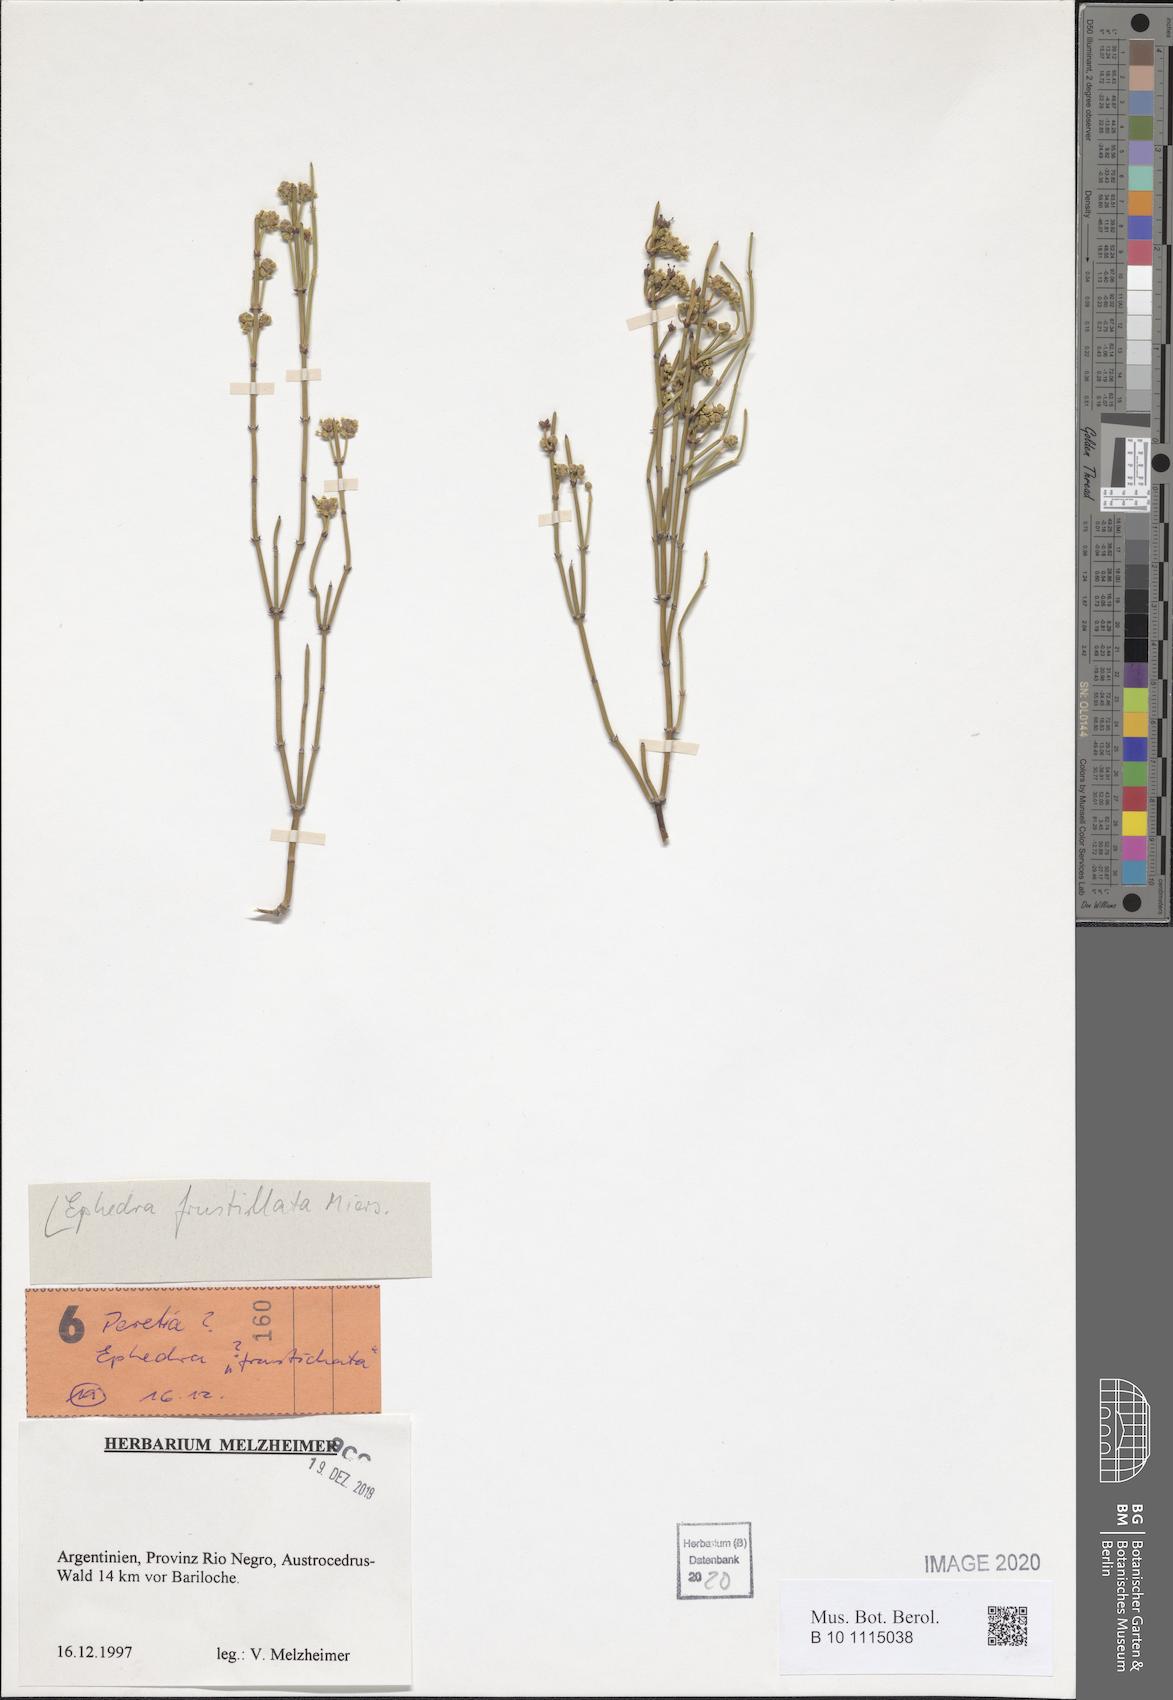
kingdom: Plantae
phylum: Tracheophyta
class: Gnetopsida
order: Ephedrales
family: Ephedraceae
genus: Ephedra
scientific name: Ephedra frustillata
